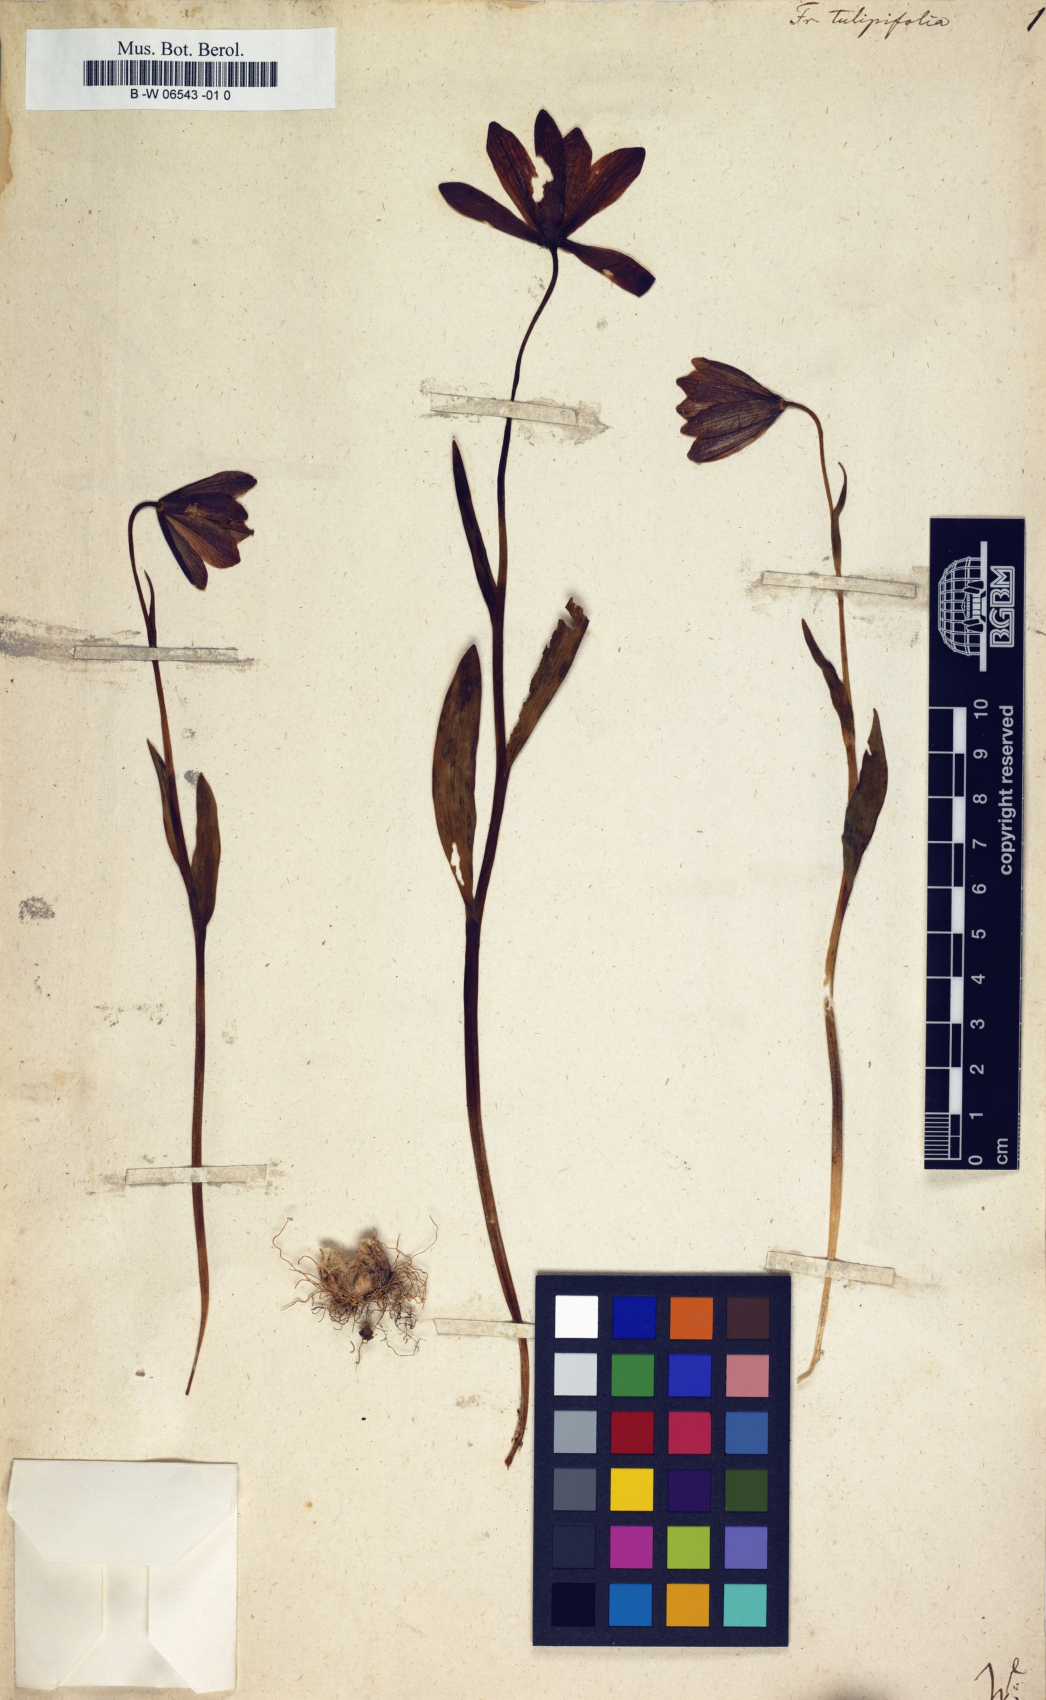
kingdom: Plantae
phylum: Tracheophyta
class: Liliopsida
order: Liliales
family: Liliaceae
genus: Fritillaria
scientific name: Fritillaria tulipifolia
